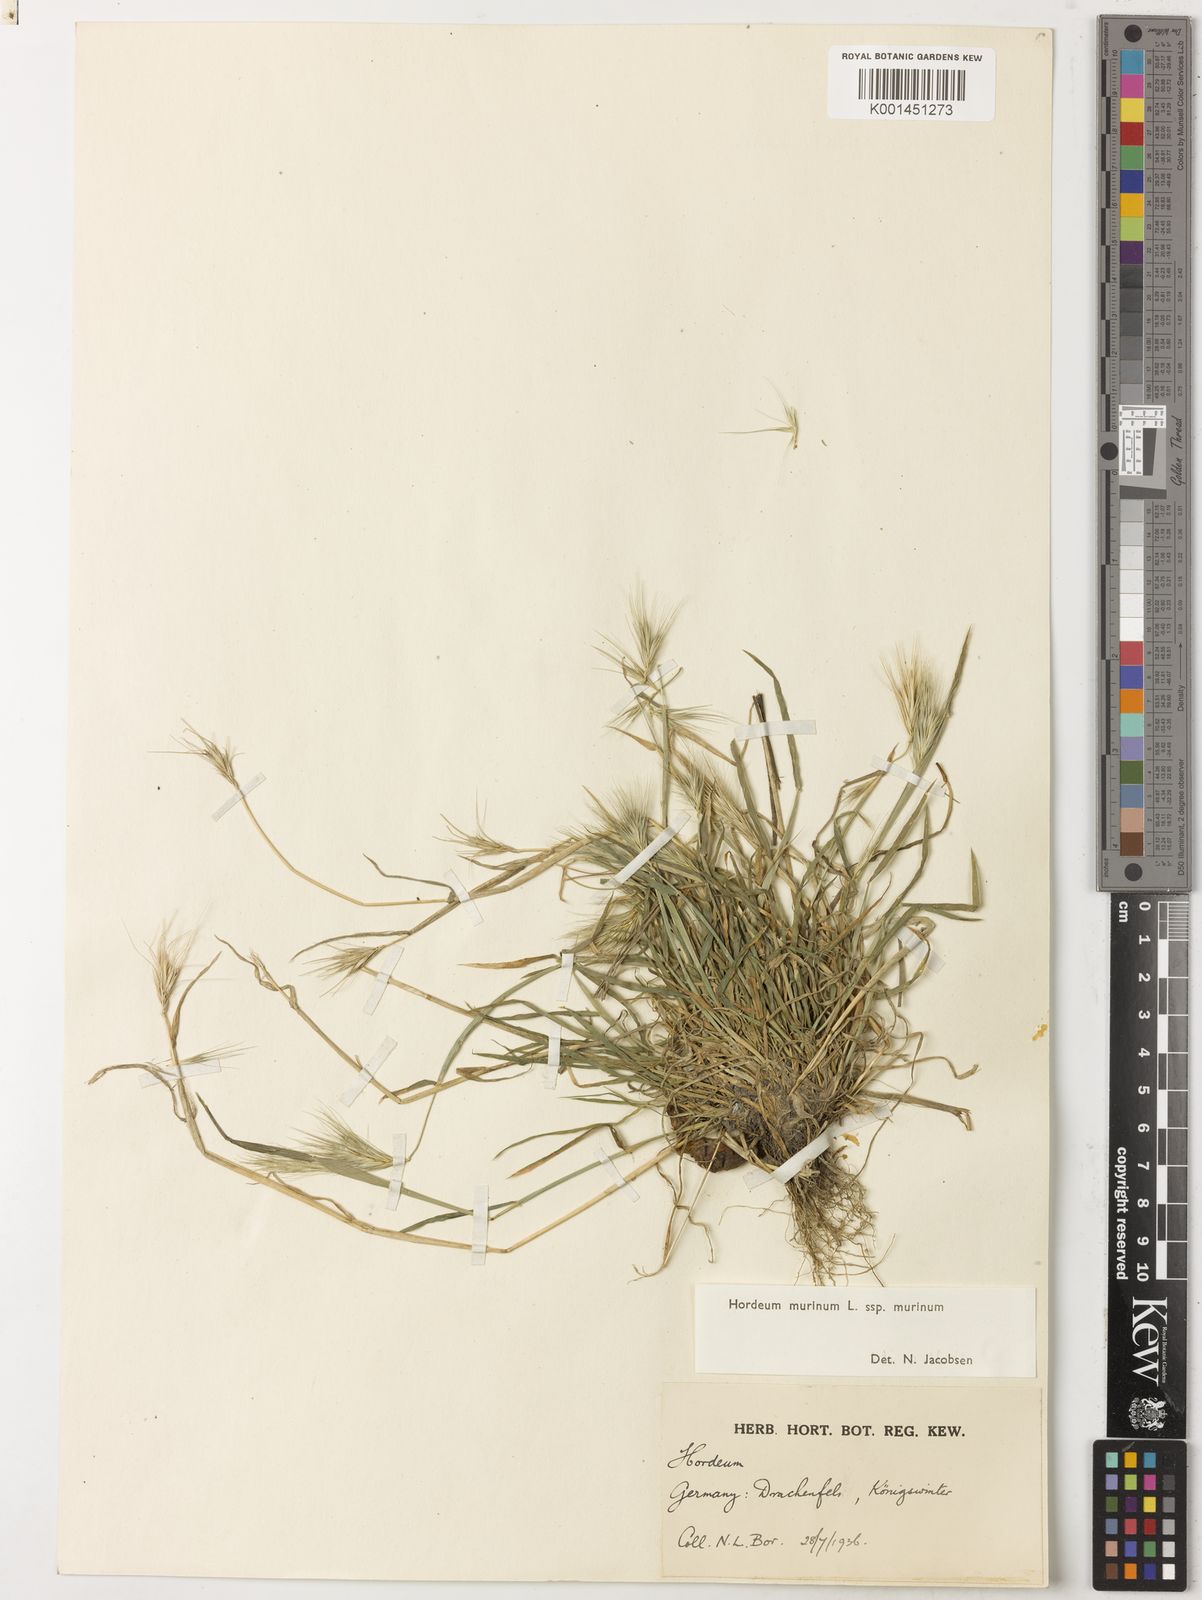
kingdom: Plantae
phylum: Tracheophyta
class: Liliopsida
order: Poales
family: Poaceae
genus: Hordeum
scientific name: Hordeum murinum
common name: Wall barley
